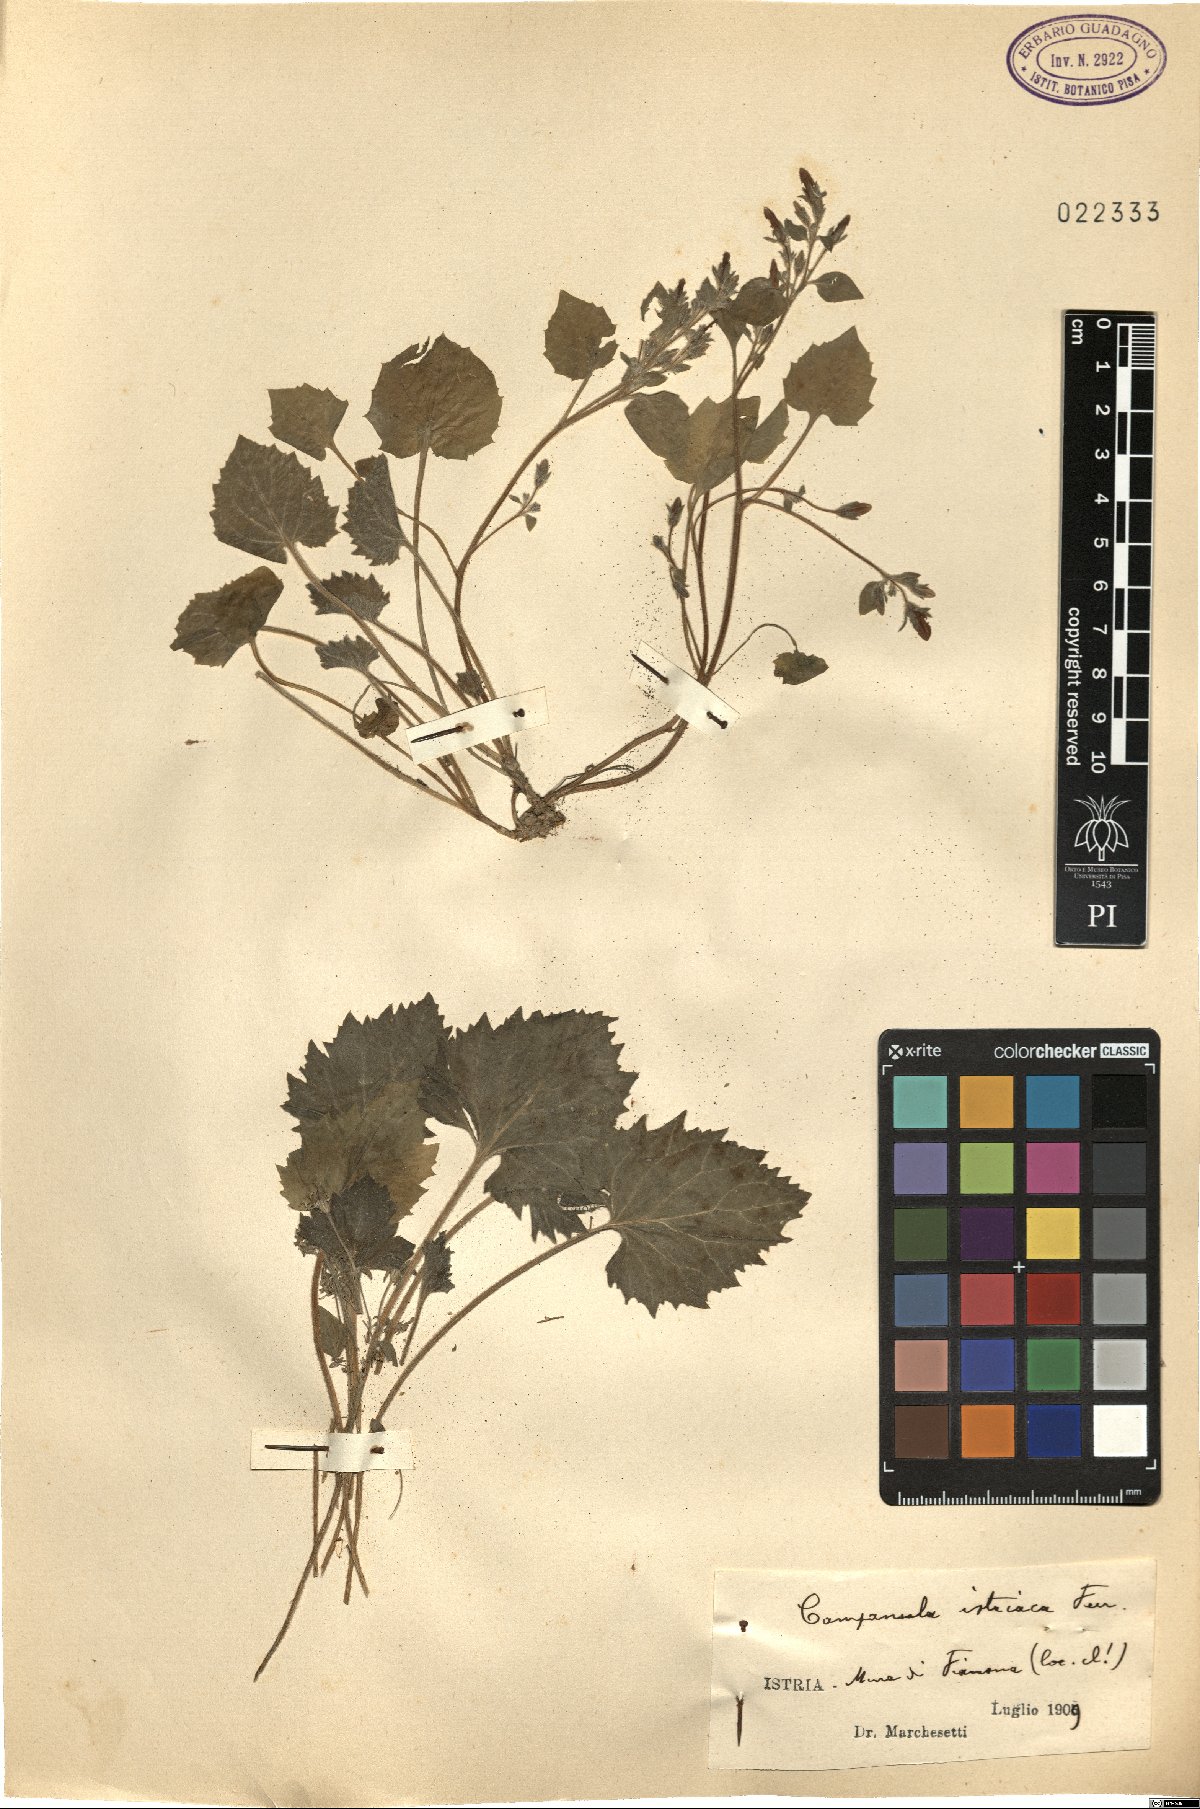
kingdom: Plantae
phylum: Tracheophyta
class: Magnoliopsida
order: Asterales
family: Campanulaceae
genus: Campanula
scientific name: Campanula fenestrellata
